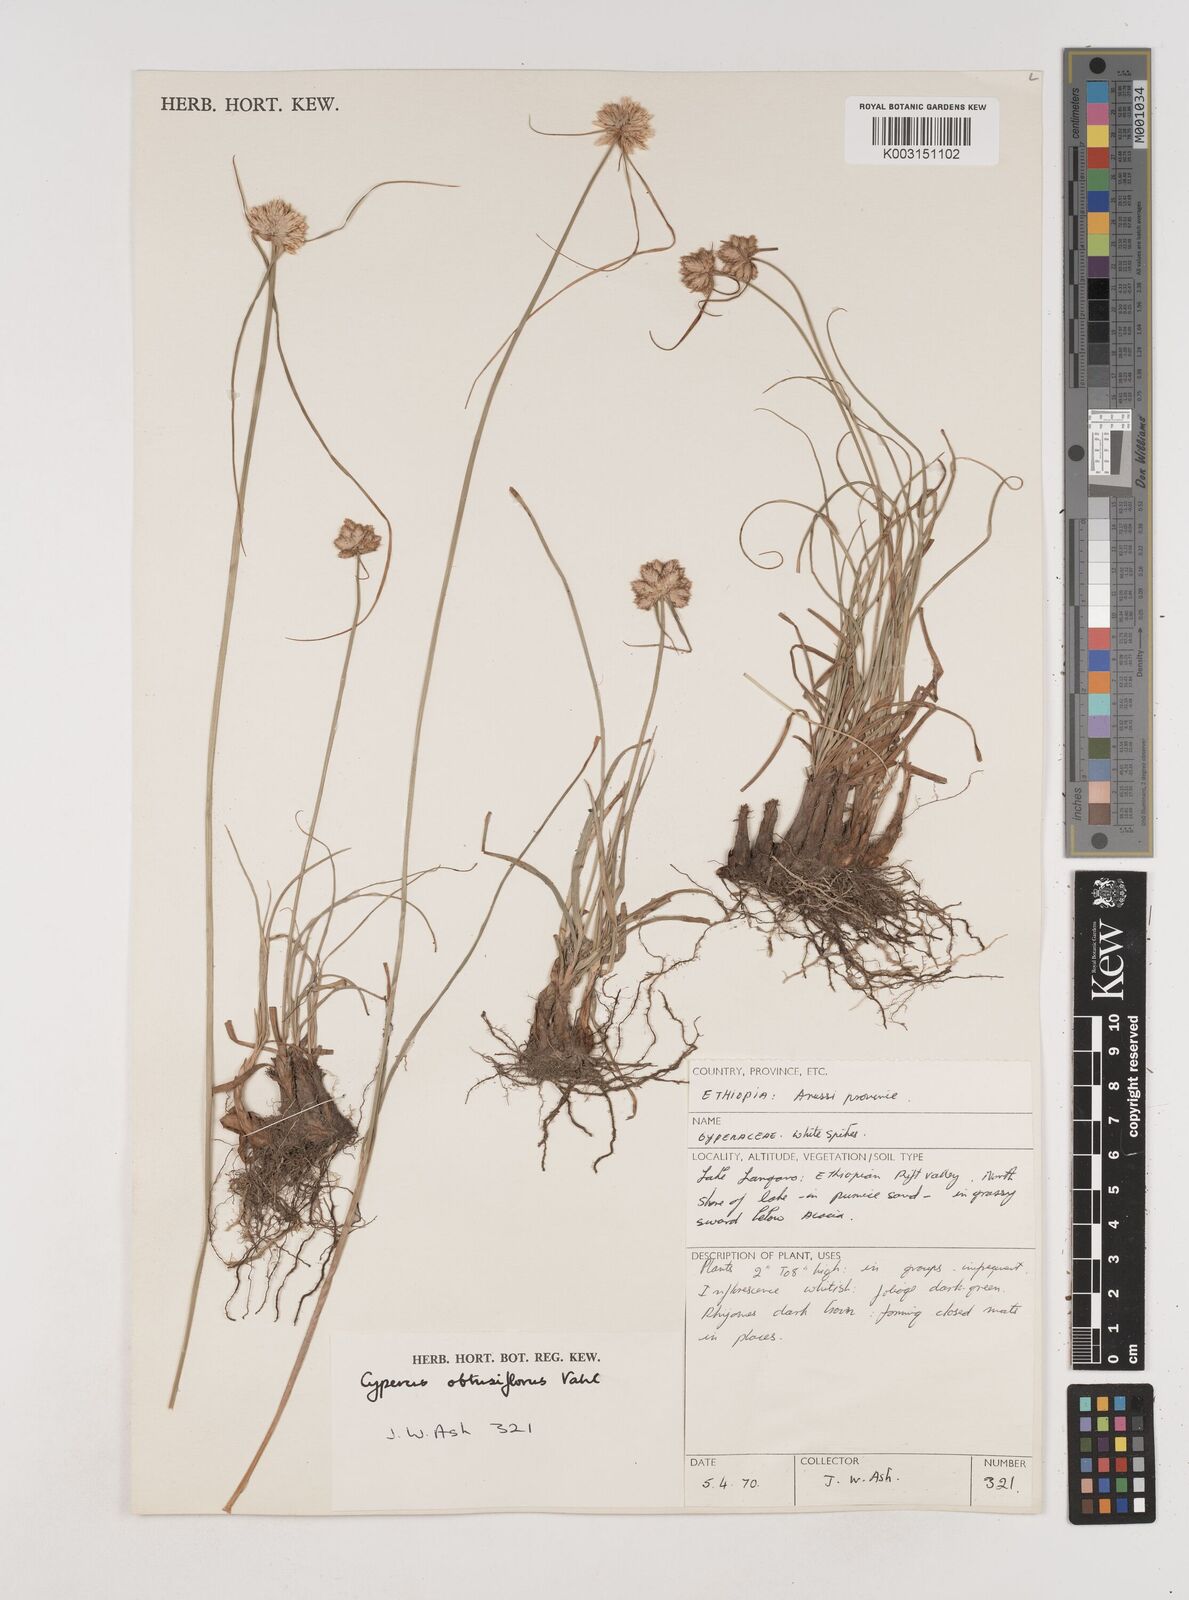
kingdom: Plantae
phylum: Tracheophyta
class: Liliopsida
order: Poales
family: Cyperaceae
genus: Cyperus
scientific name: Cyperus niveus
